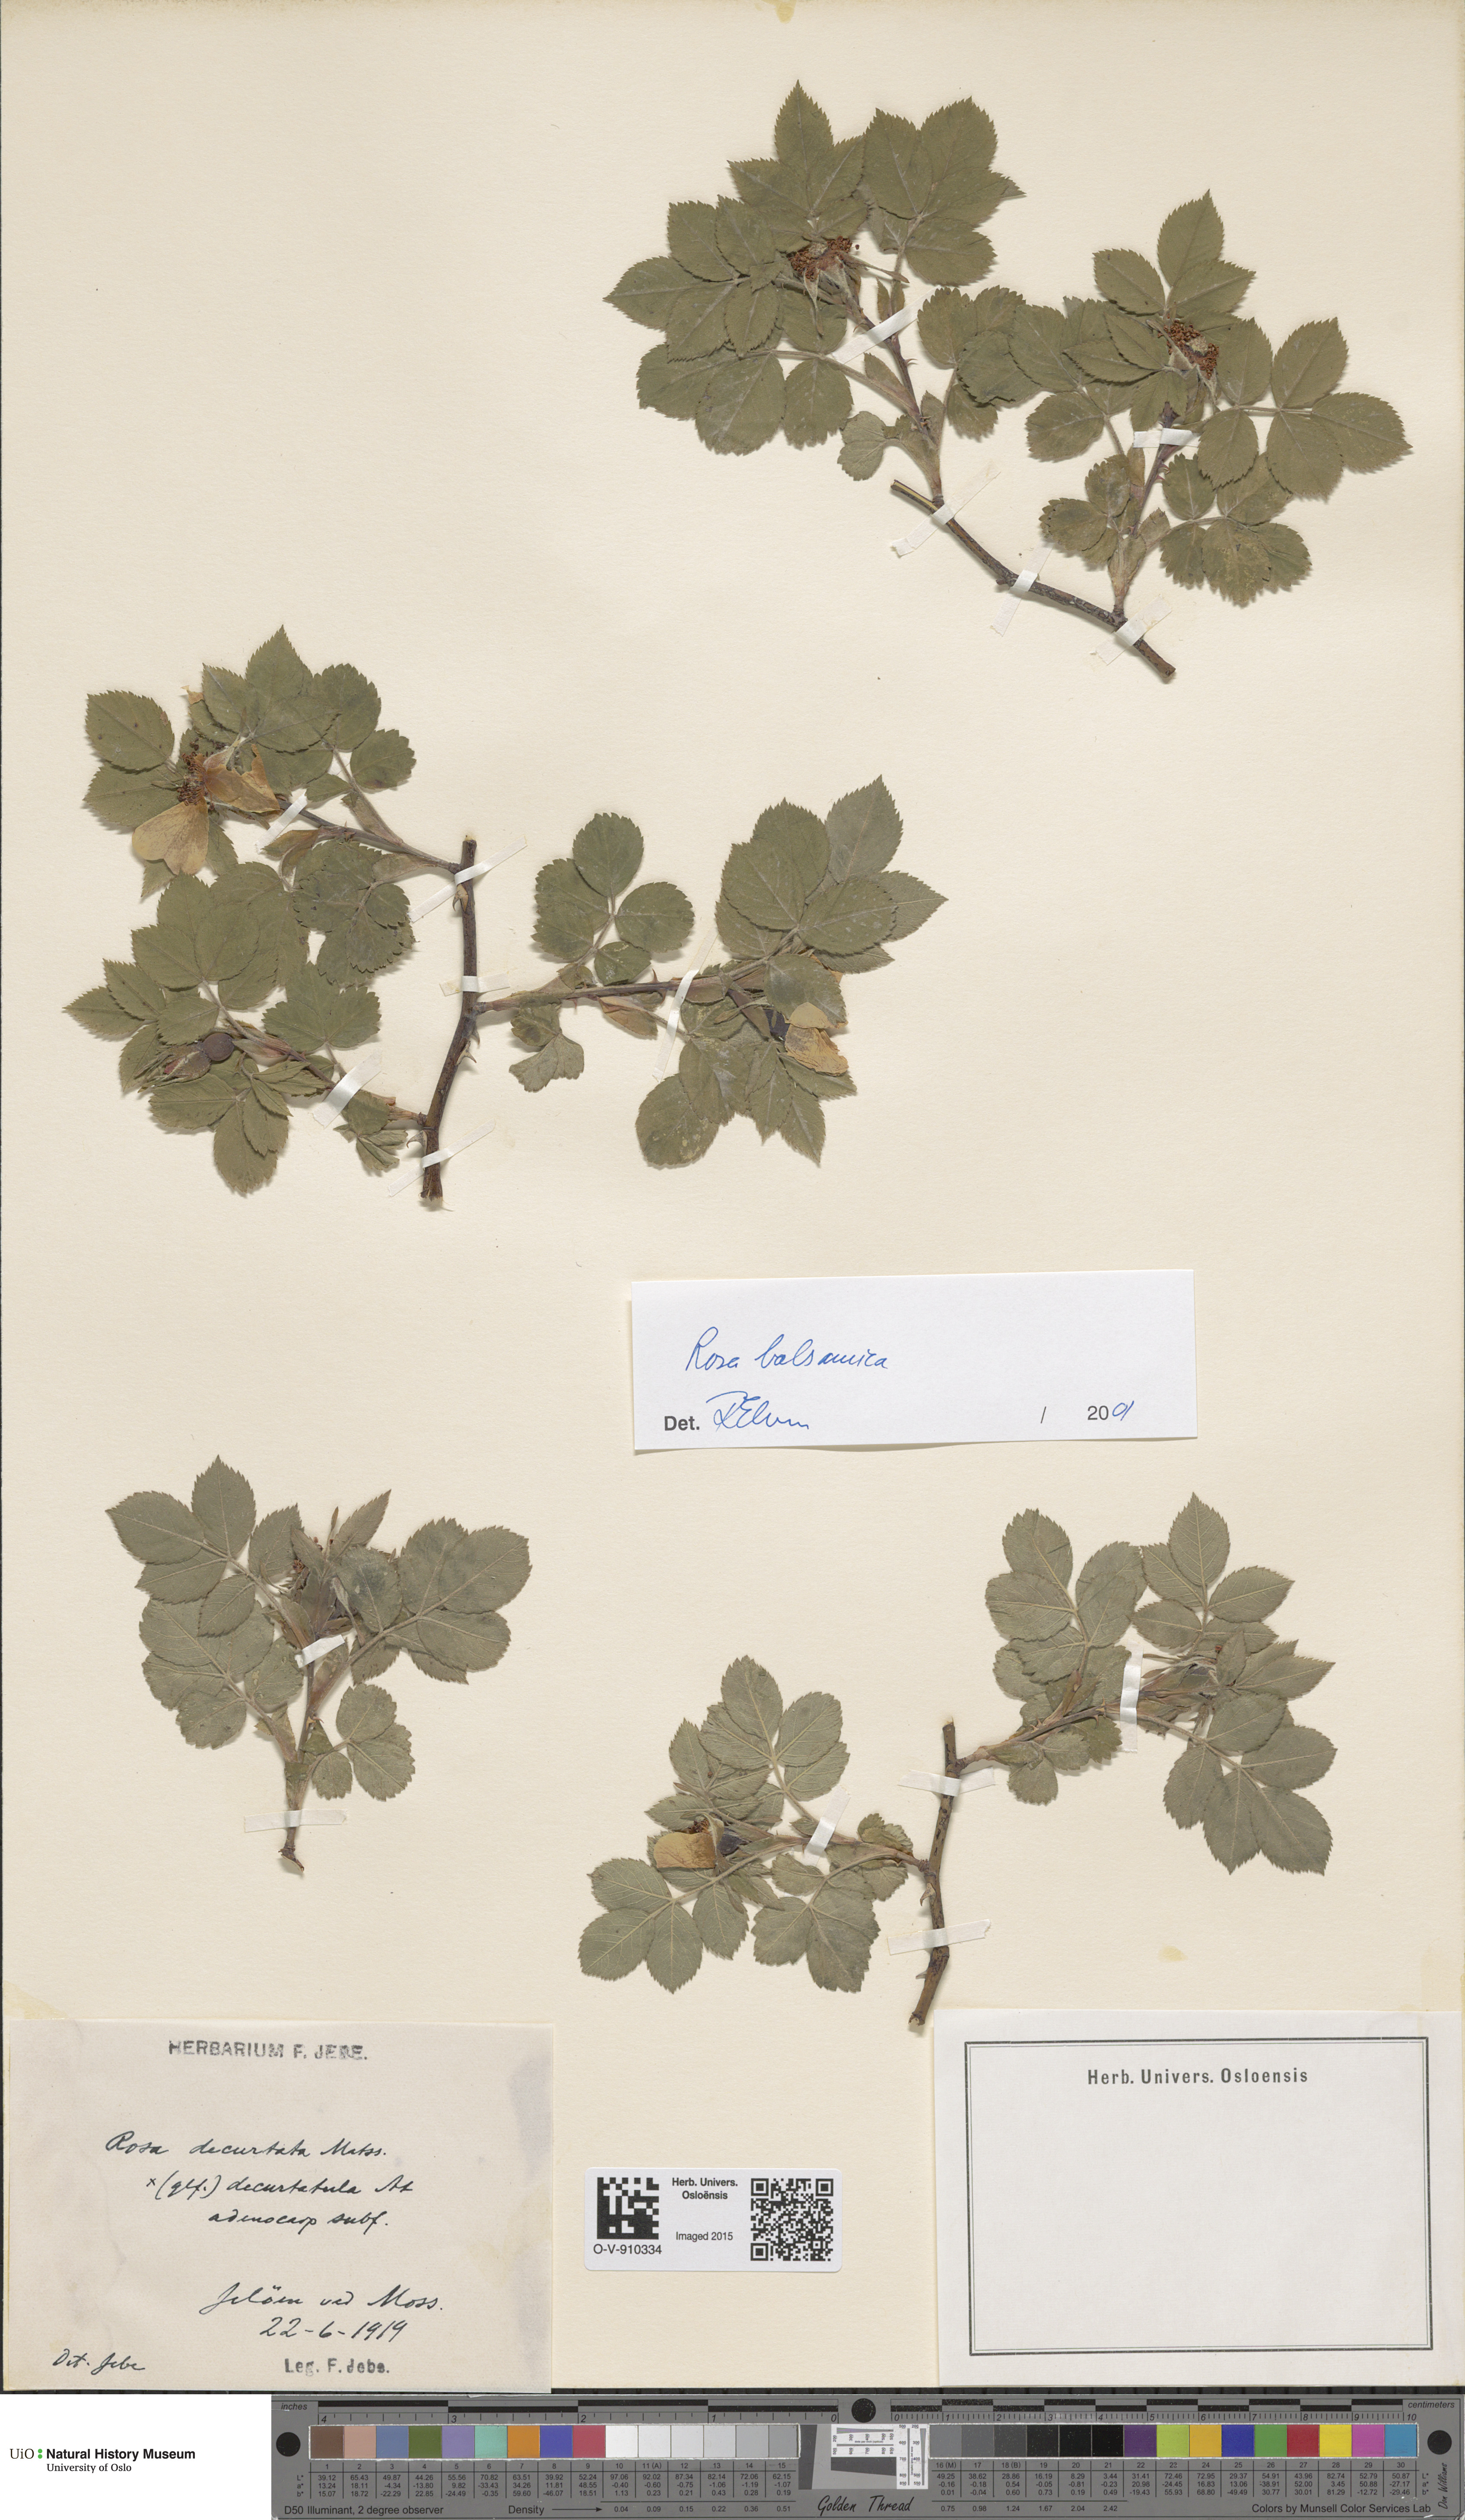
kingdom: Plantae
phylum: Tracheophyta
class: Magnoliopsida
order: Rosales
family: Rosaceae
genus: Rosa
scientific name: Rosa balsamica
